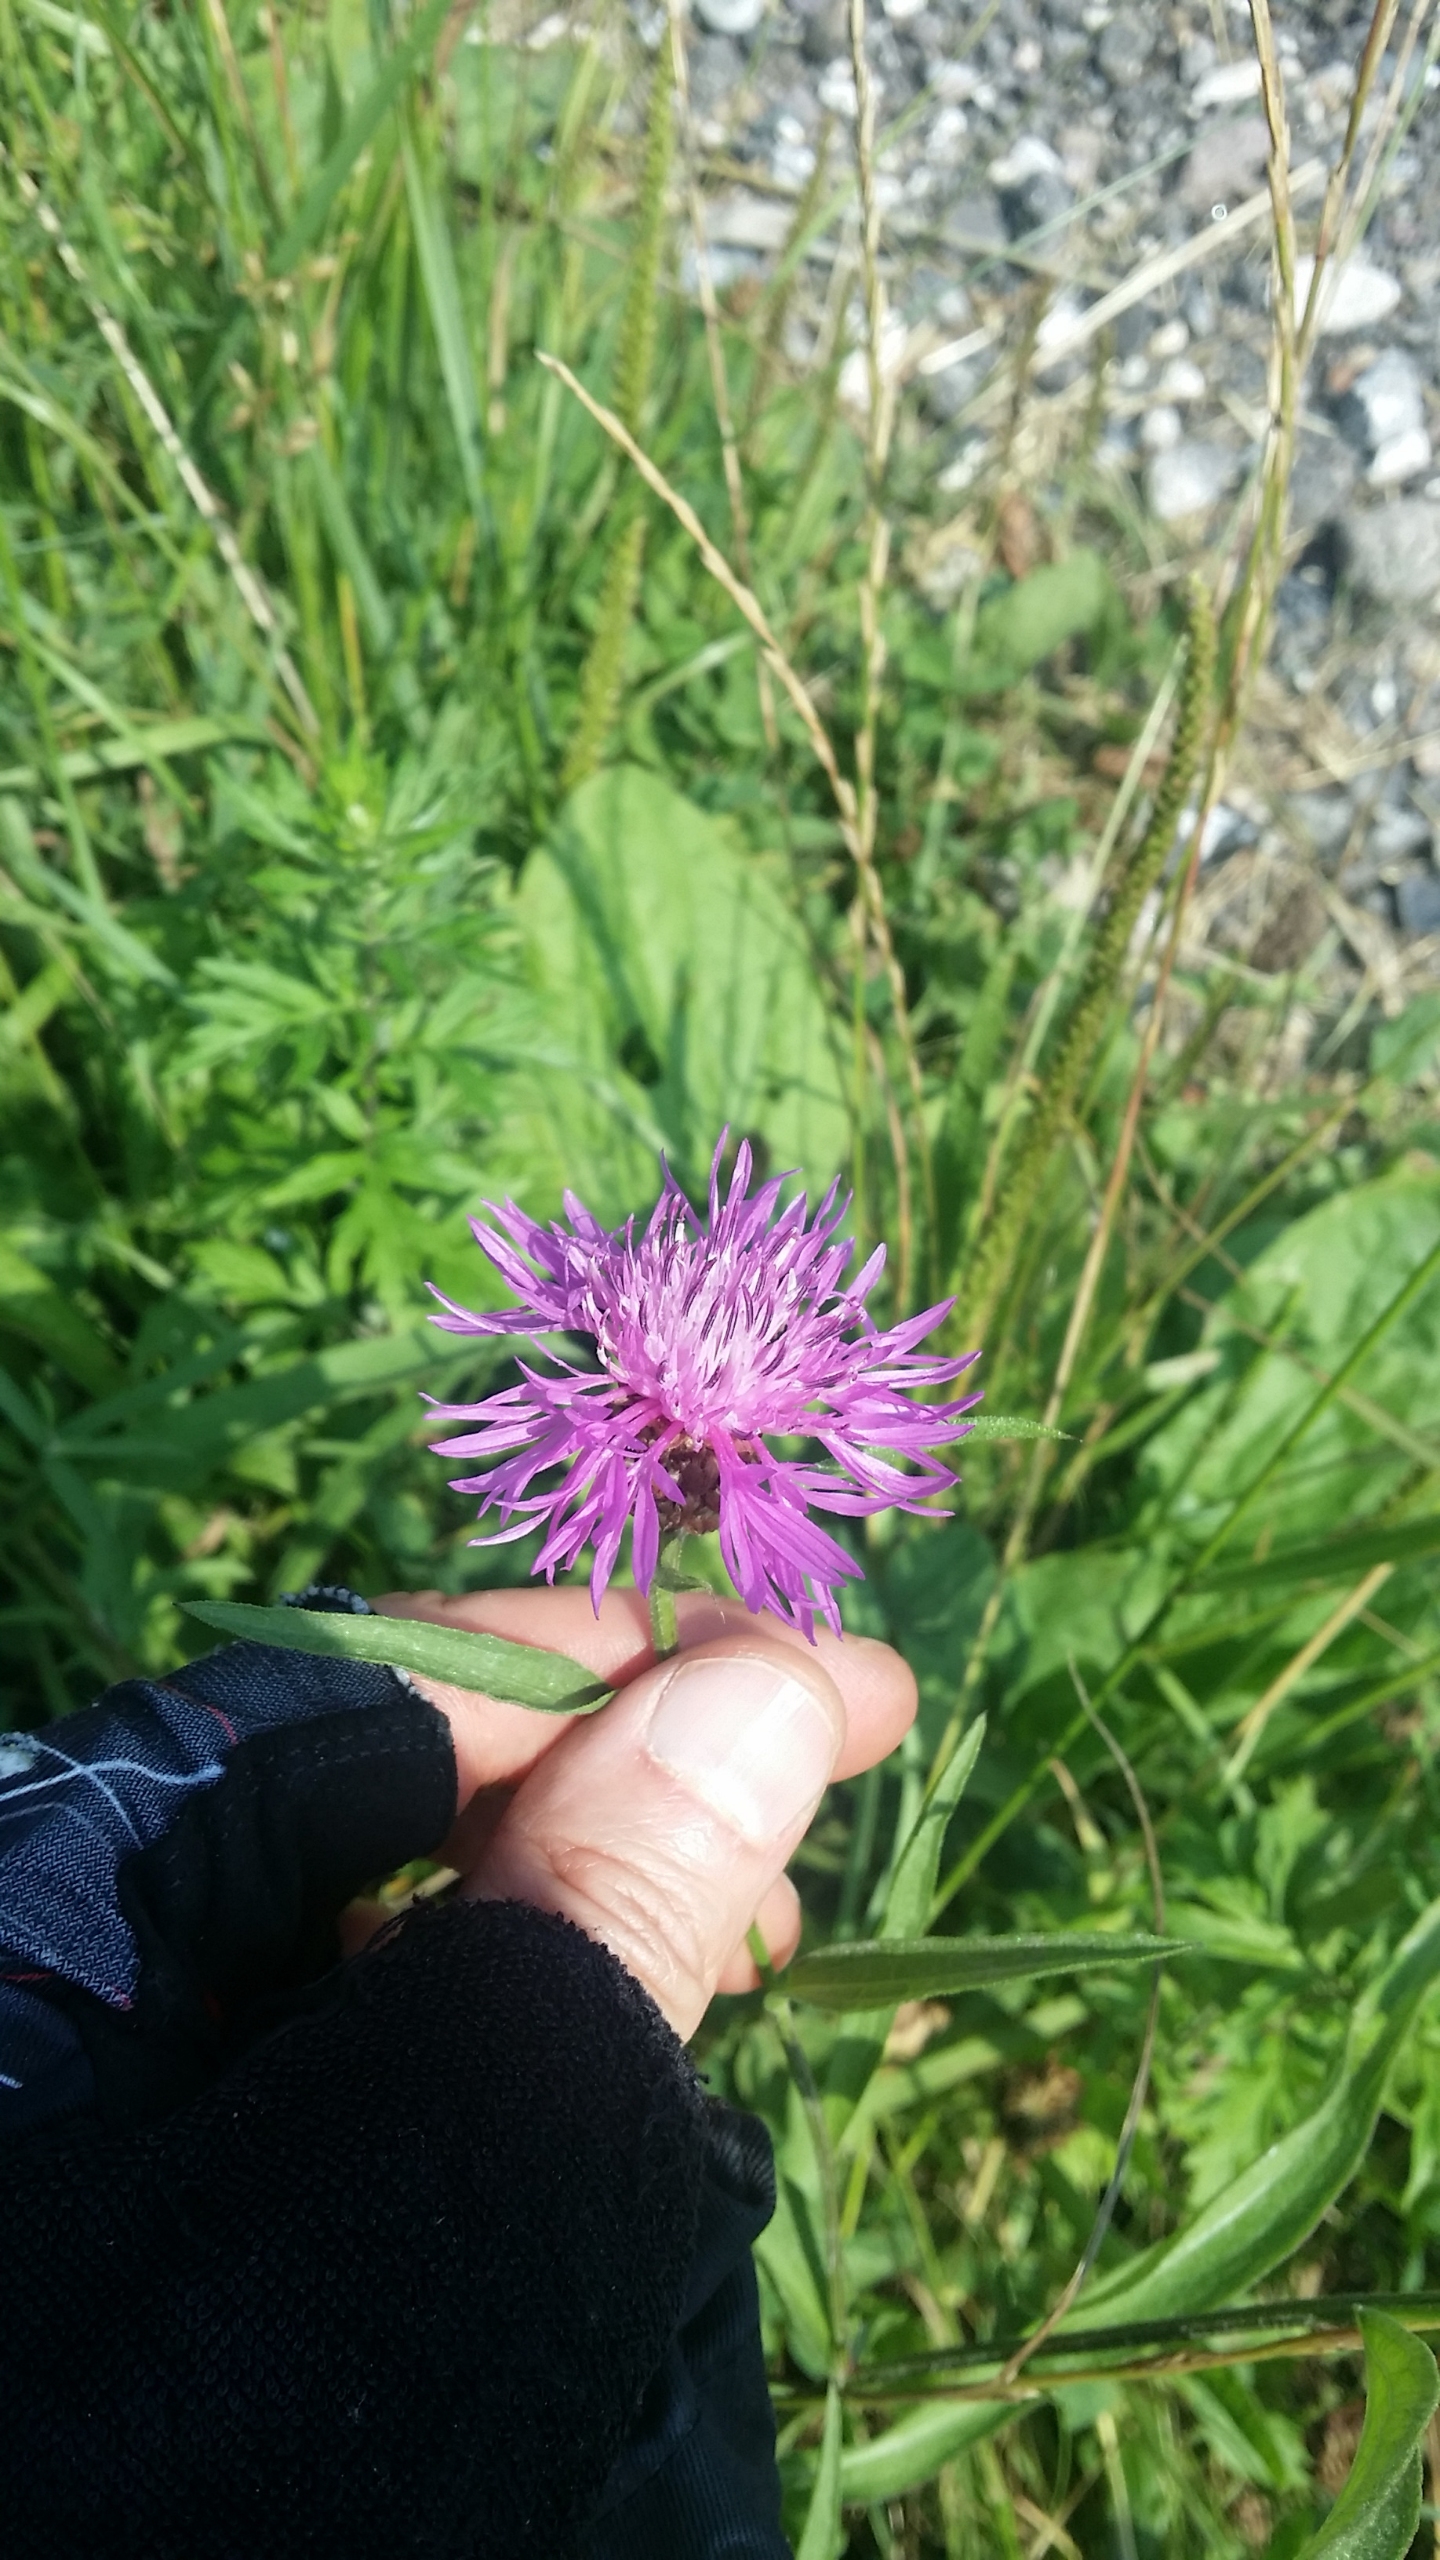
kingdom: Plantae
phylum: Tracheophyta
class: Magnoliopsida
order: Asterales
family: Asteraceae
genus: Centaurea
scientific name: Centaurea jacea
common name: Almindelig knopurt
